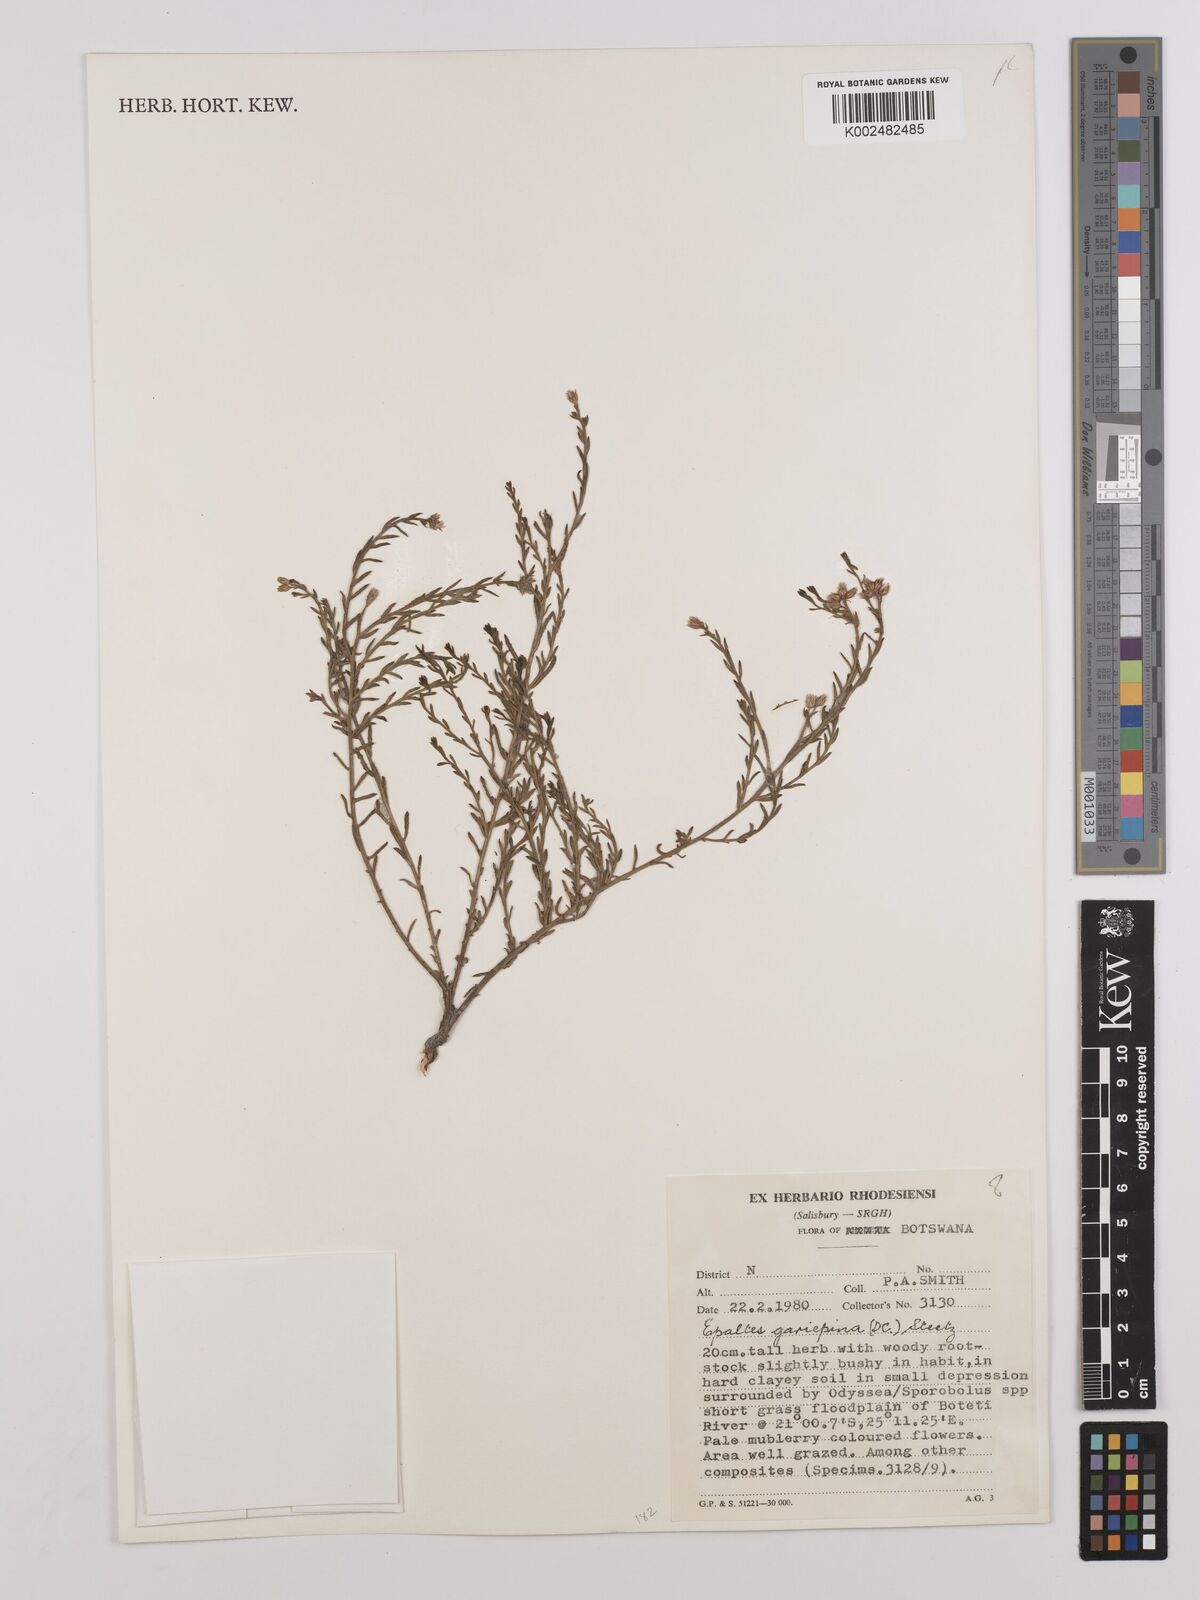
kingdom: Plantae
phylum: Tracheophyta
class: Magnoliopsida
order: Asterales
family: Asteraceae
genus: Litogyne
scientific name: Litogyne gariepina
